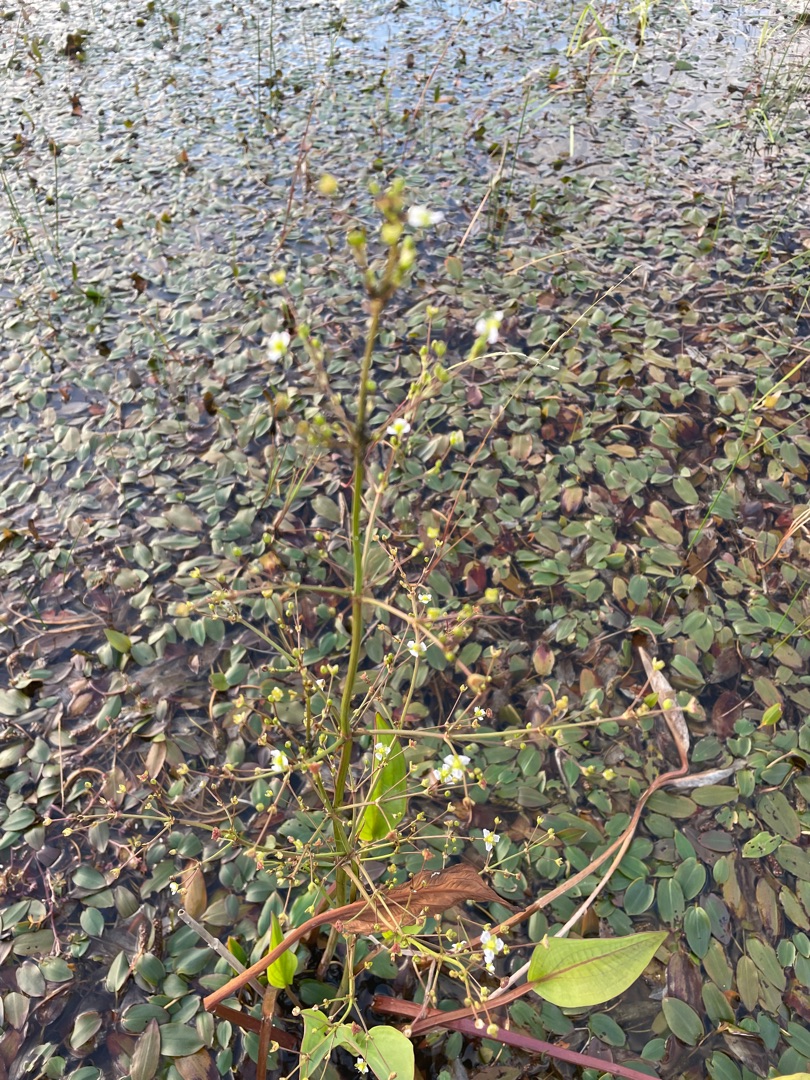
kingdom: Plantae
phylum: Tracheophyta
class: Liliopsida
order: Alismatales
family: Alismataceae
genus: Alisma
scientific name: Alisma plantago-aquatica
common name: Vejbred-skeblad
